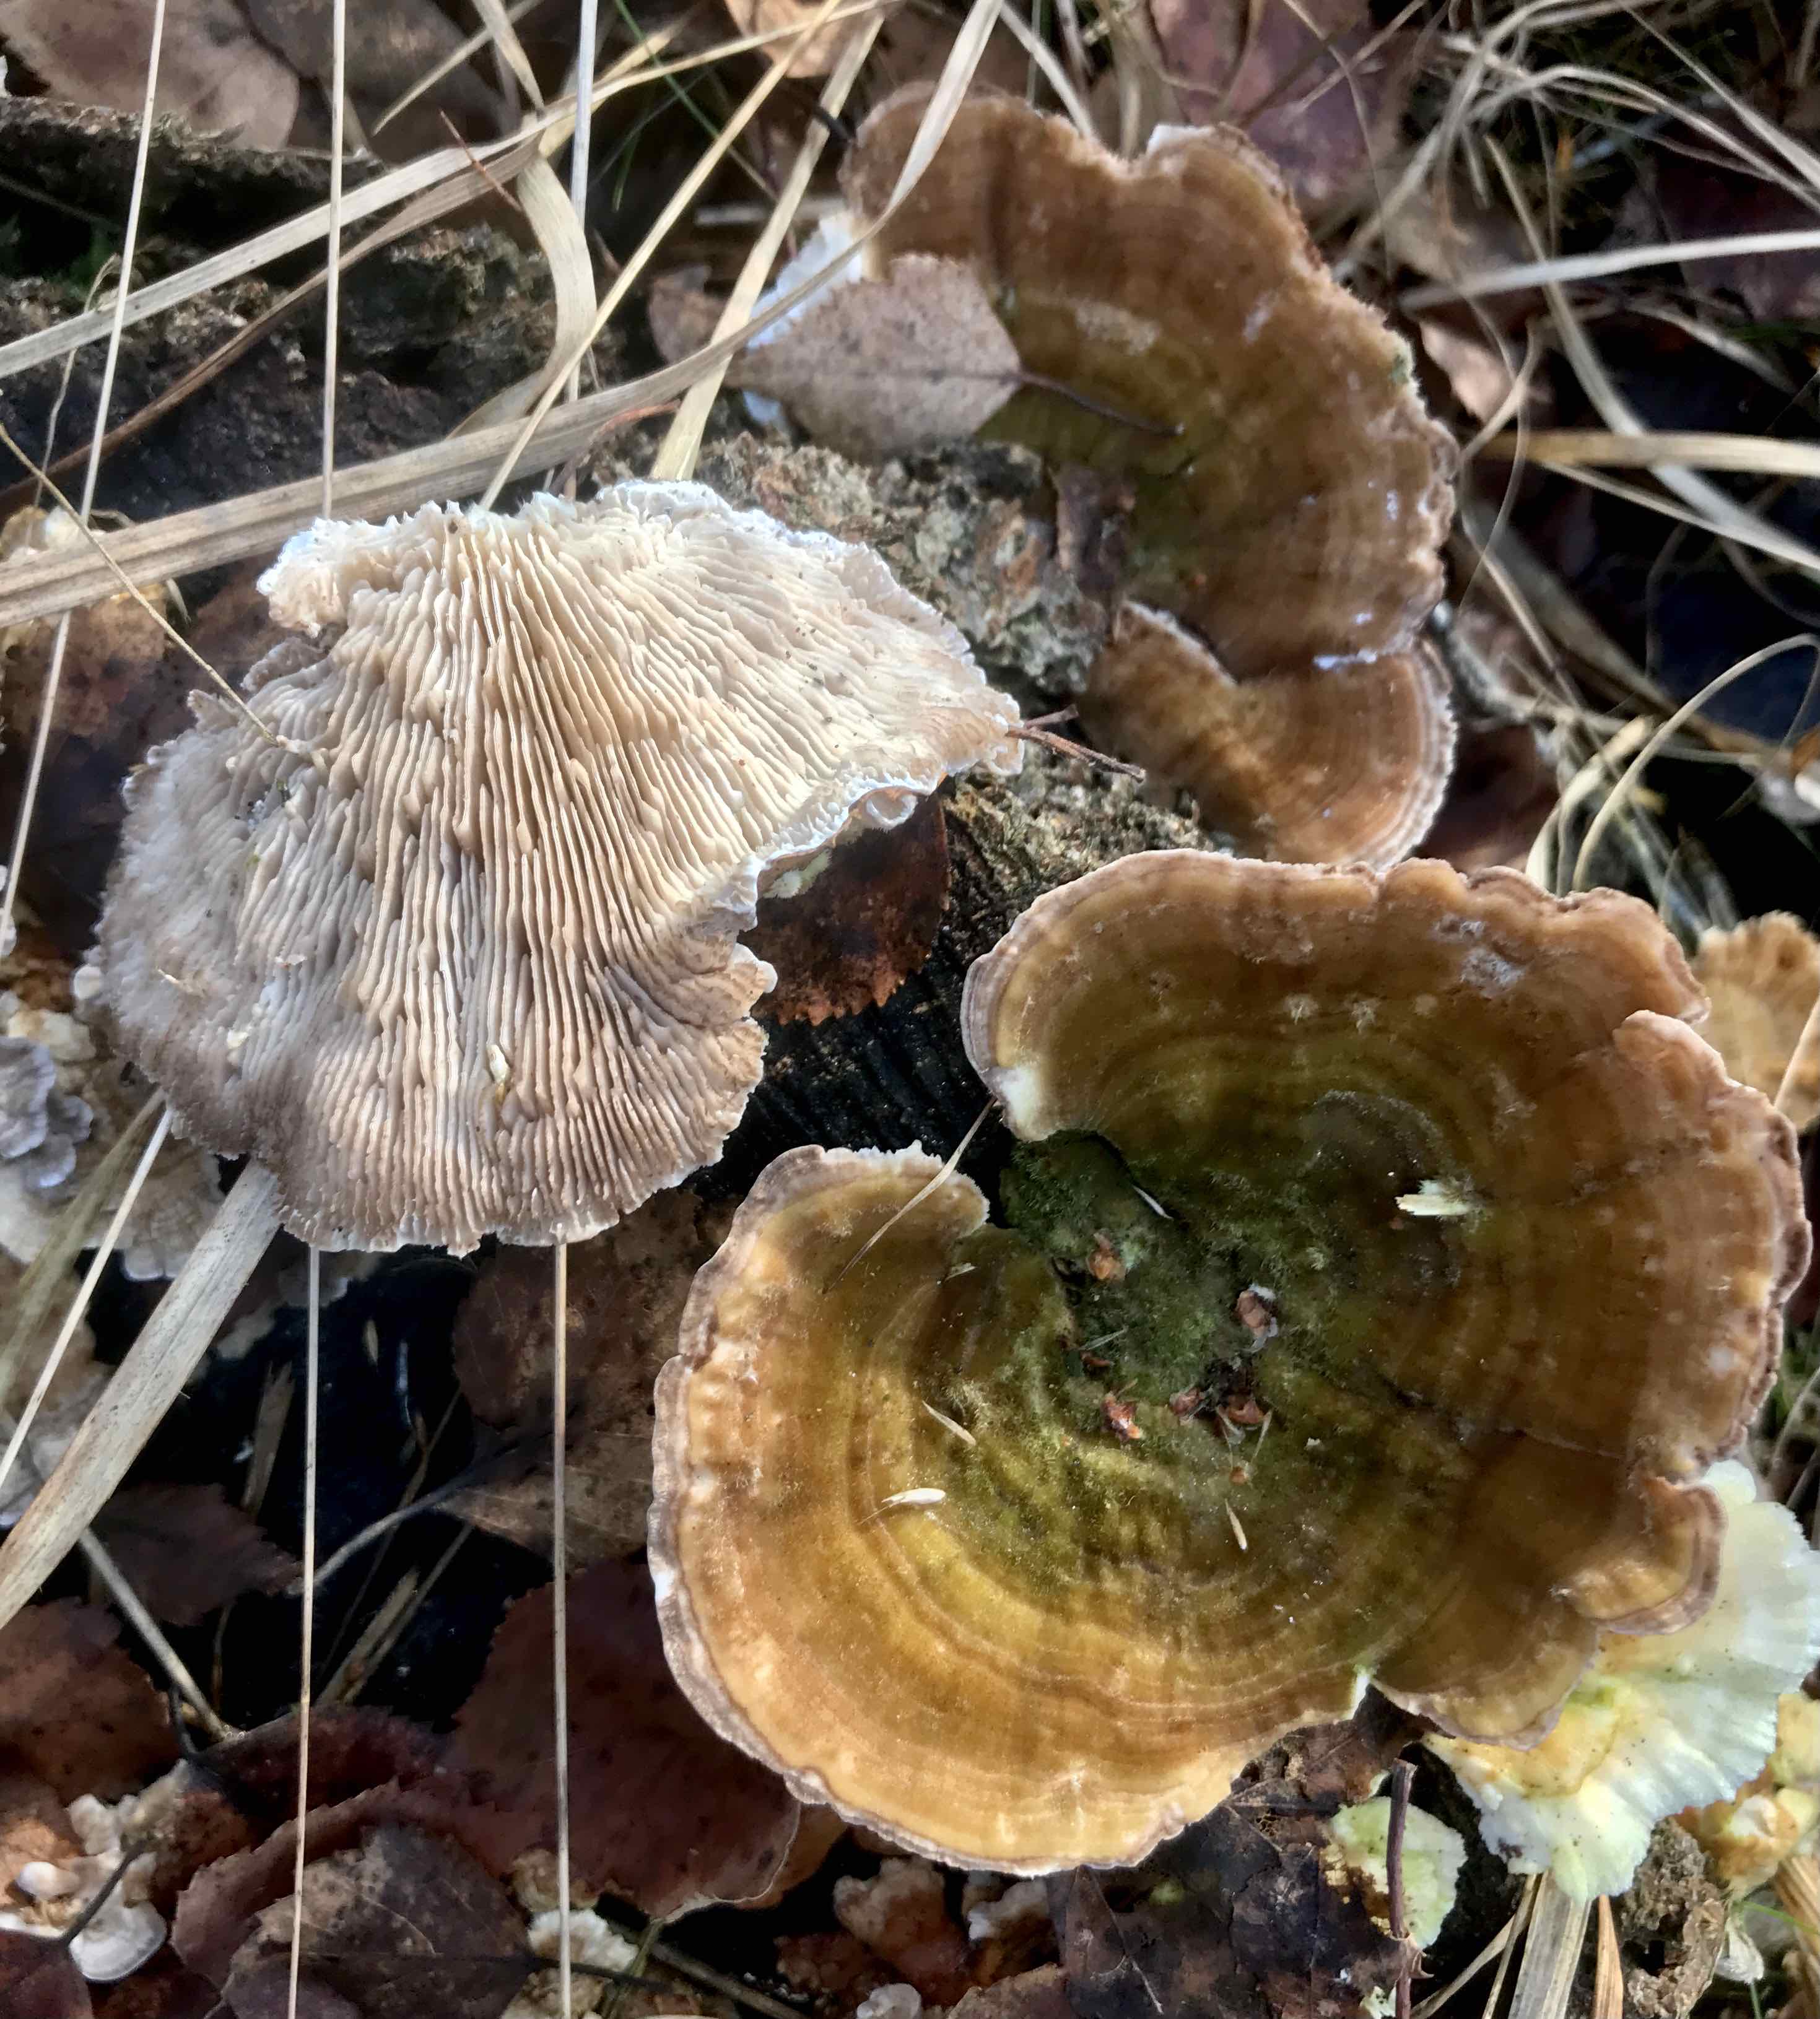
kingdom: Fungi
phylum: Basidiomycota
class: Agaricomycetes
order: Polyporales
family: Polyporaceae
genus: Lenzites
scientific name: Lenzites betulinus
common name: birke-læderporesvamp
